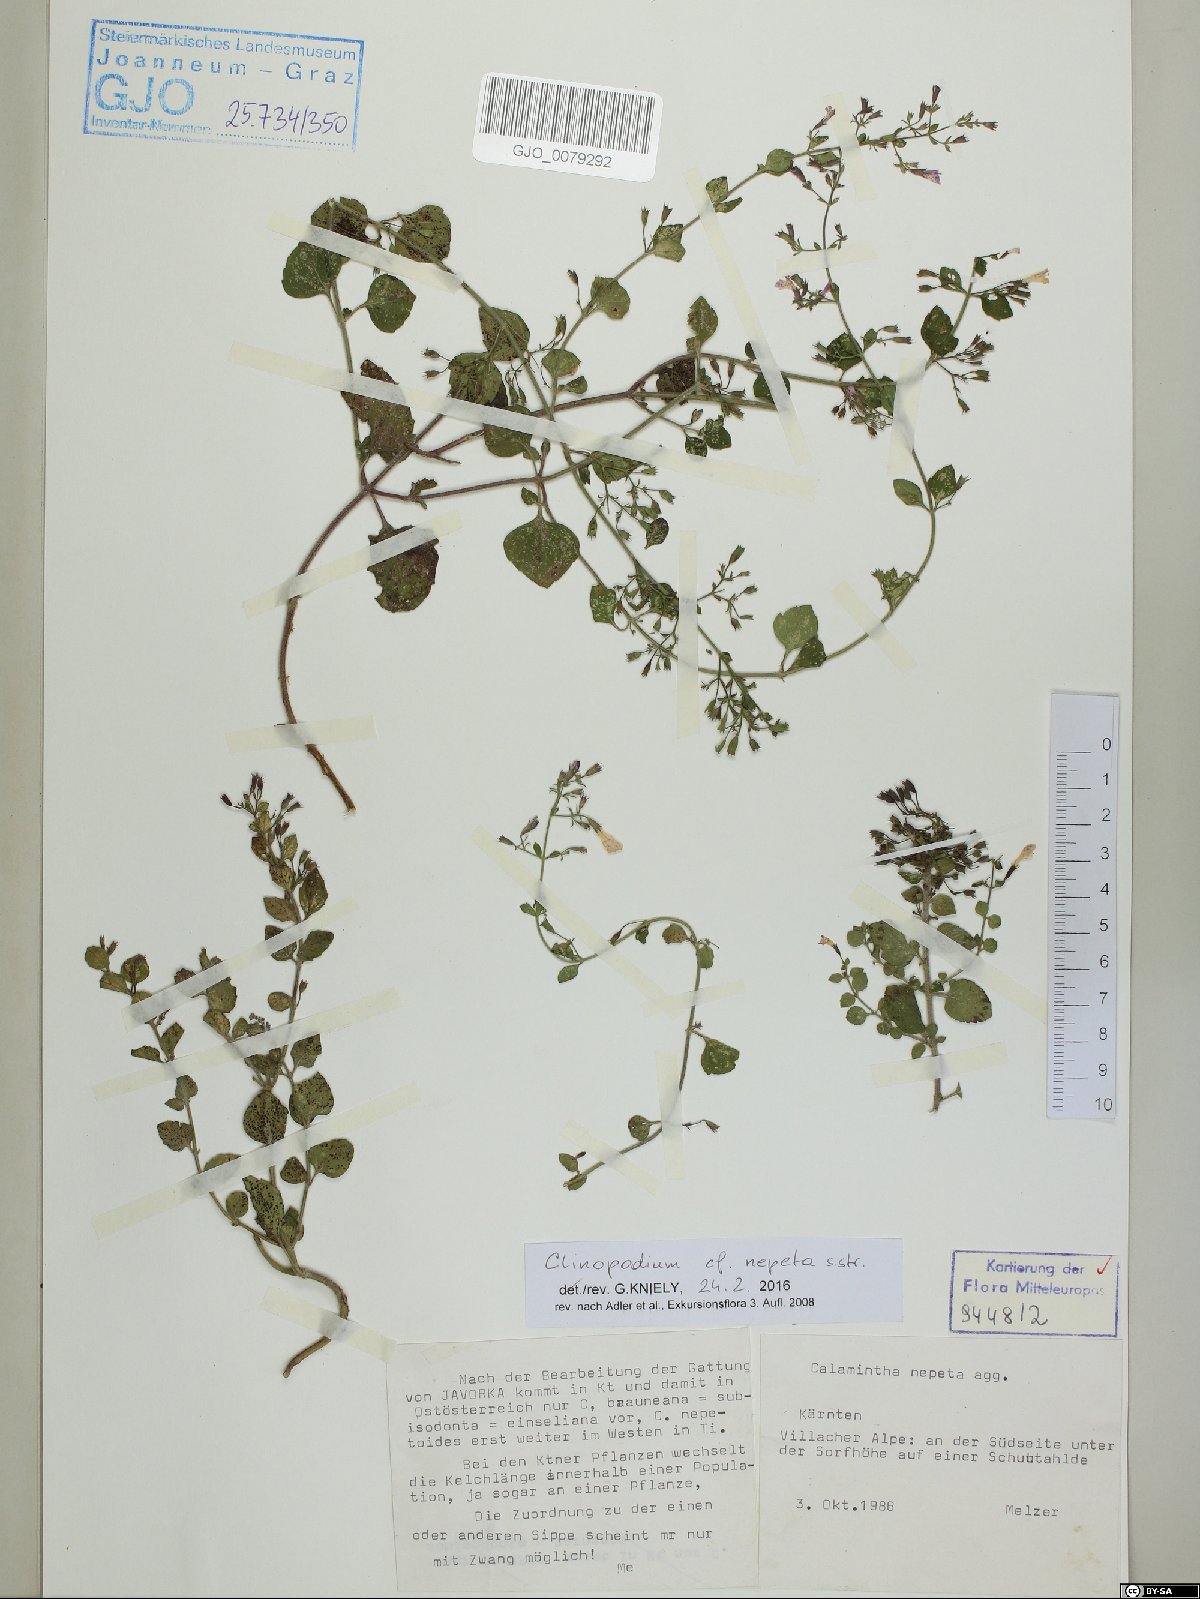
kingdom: Plantae
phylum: Tracheophyta
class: Magnoliopsida
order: Lamiales
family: Lamiaceae
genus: Clinopodium
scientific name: Clinopodium nepeta
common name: Lesser calamint
